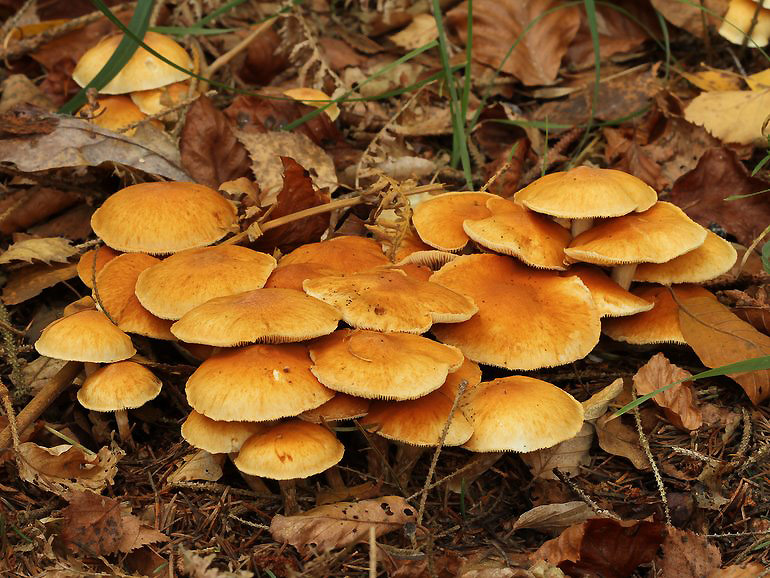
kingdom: Fungi
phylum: Basidiomycota
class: Agaricomycetes
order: Agaricales
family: Hymenogastraceae
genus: Gymnopilus
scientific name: Gymnopilus penetrans
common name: plettet flammehat
